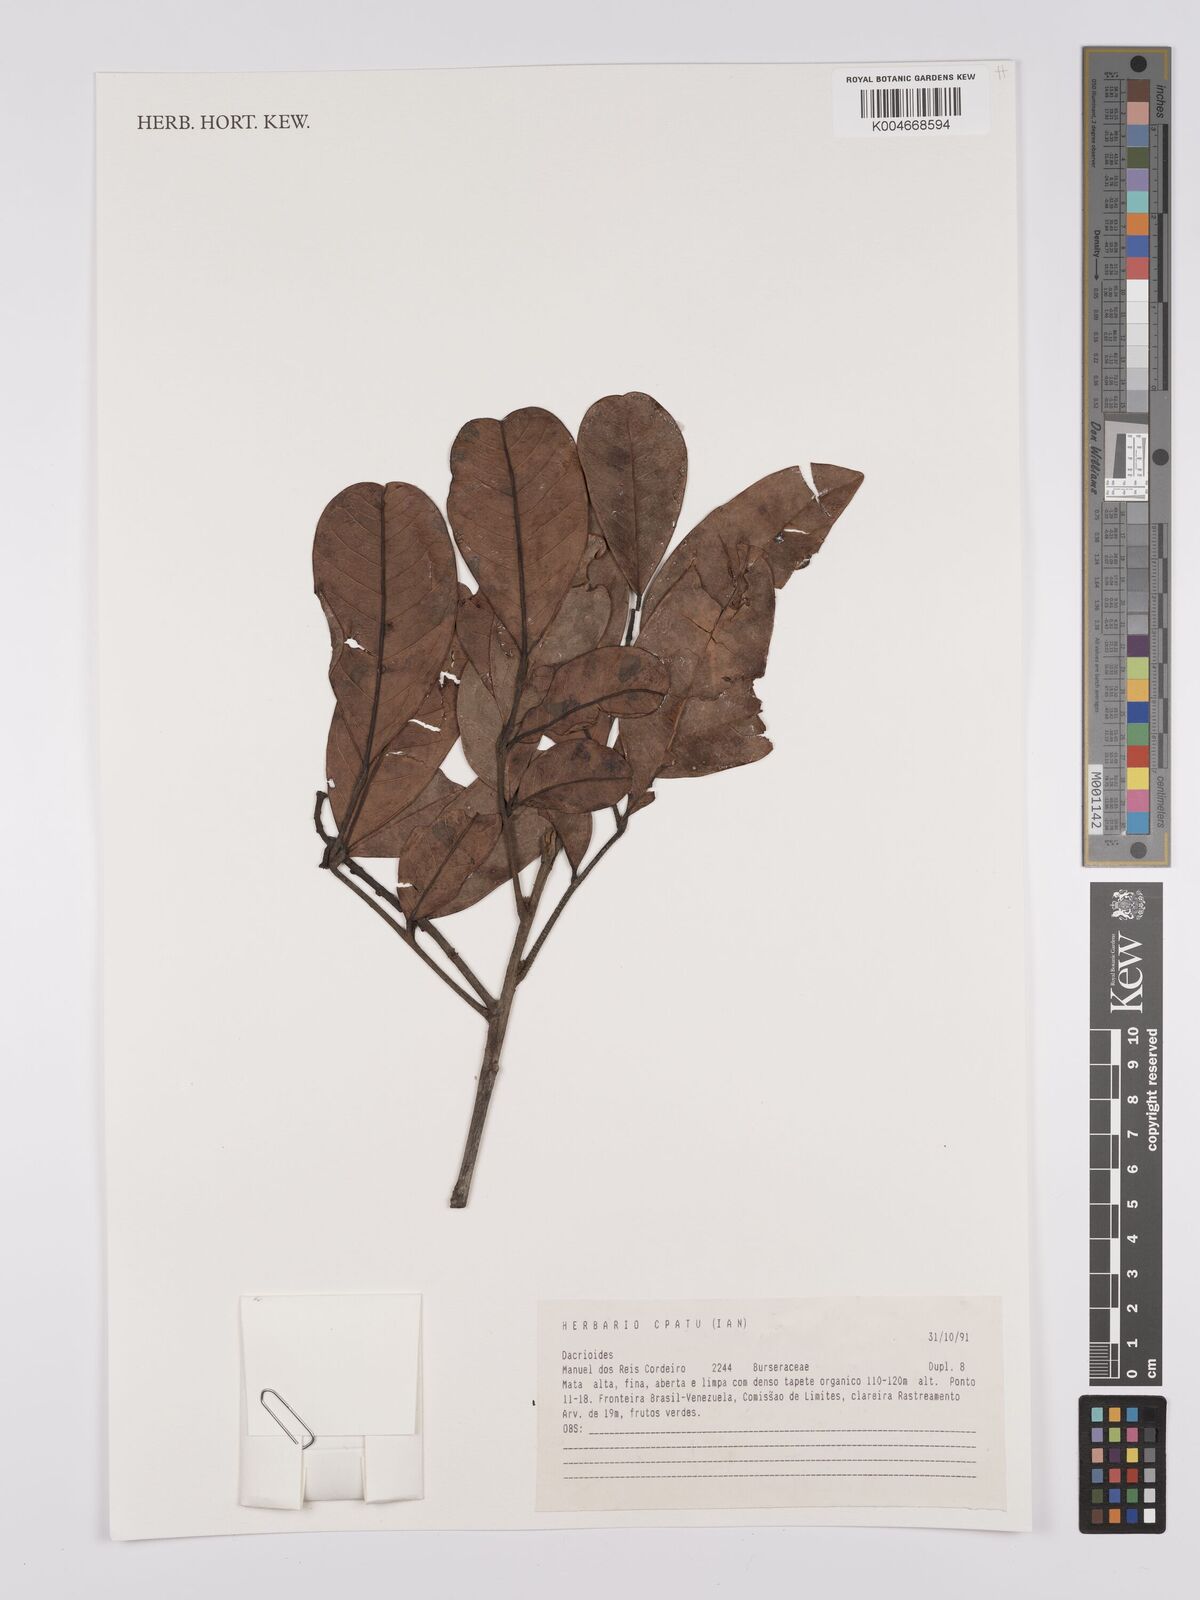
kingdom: Plantae
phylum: Tracheophyta
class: Magnoliopsida
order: Sapindales
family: Burseraceae
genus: Dacryodes
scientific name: Dacryodes
